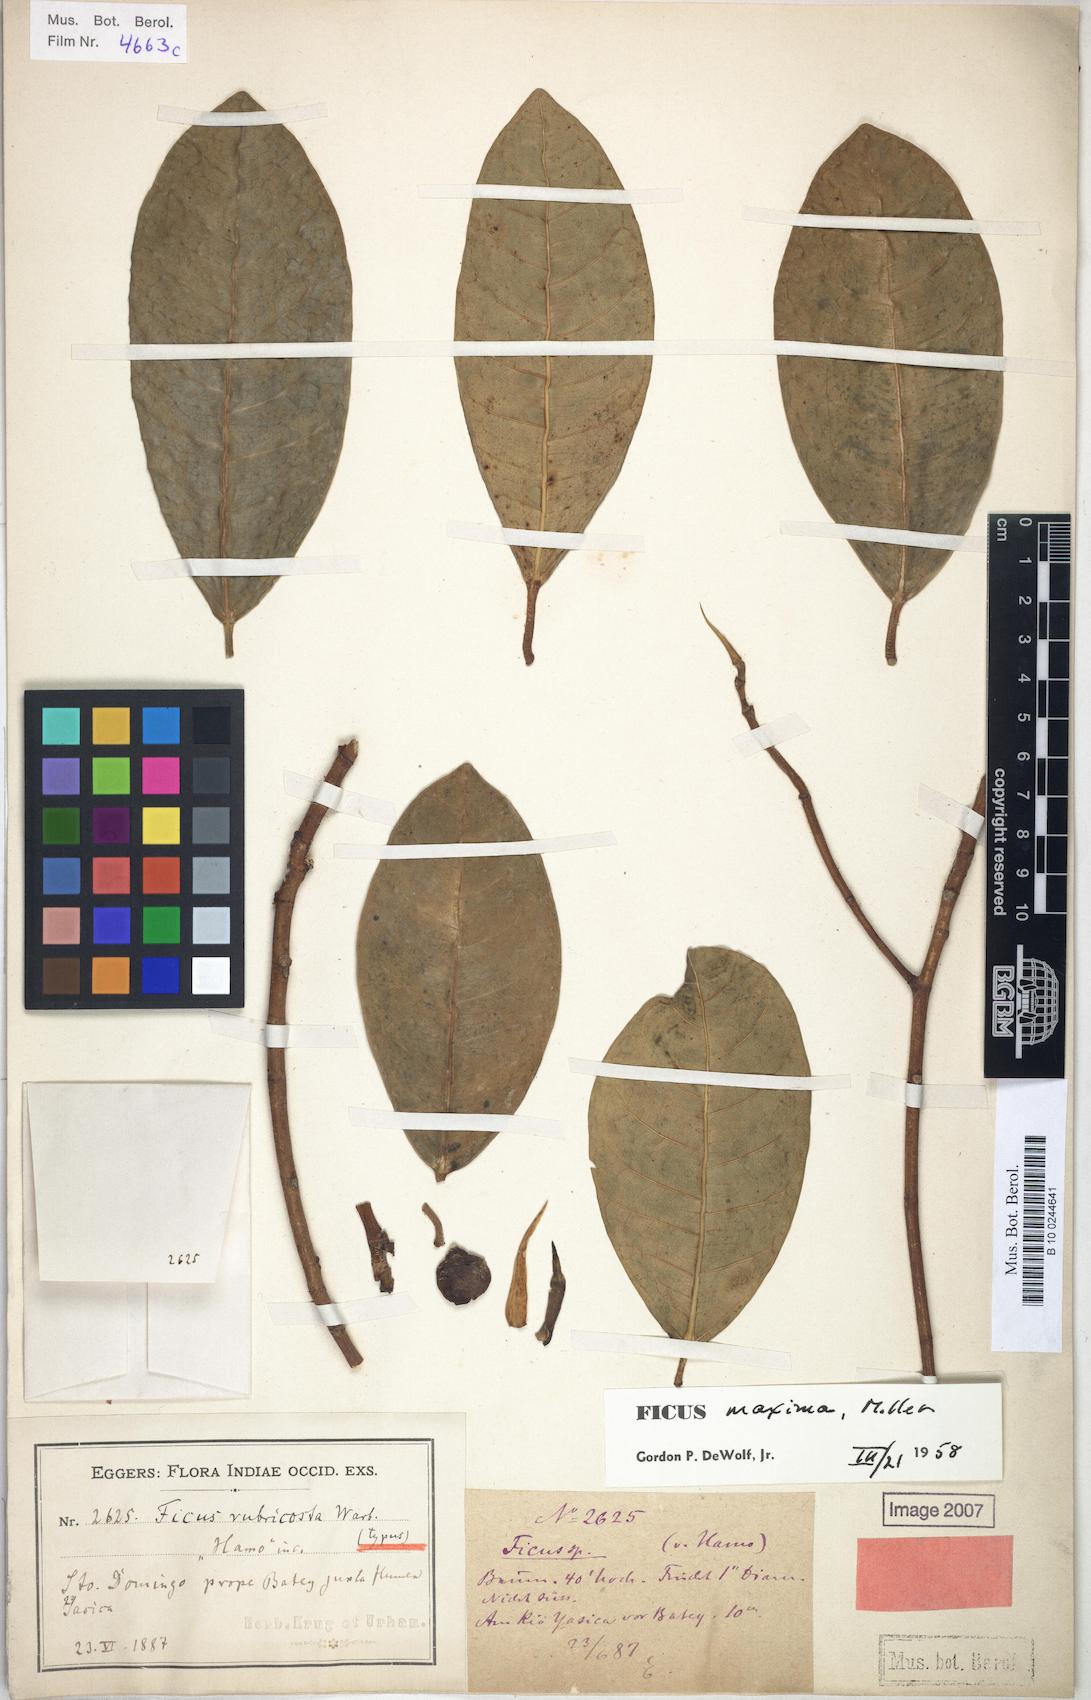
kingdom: Plantae
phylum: Tracheophyta
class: Magnoliopsida
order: Rosales
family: Moraceae
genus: Ficus
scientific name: Ficus maxima
